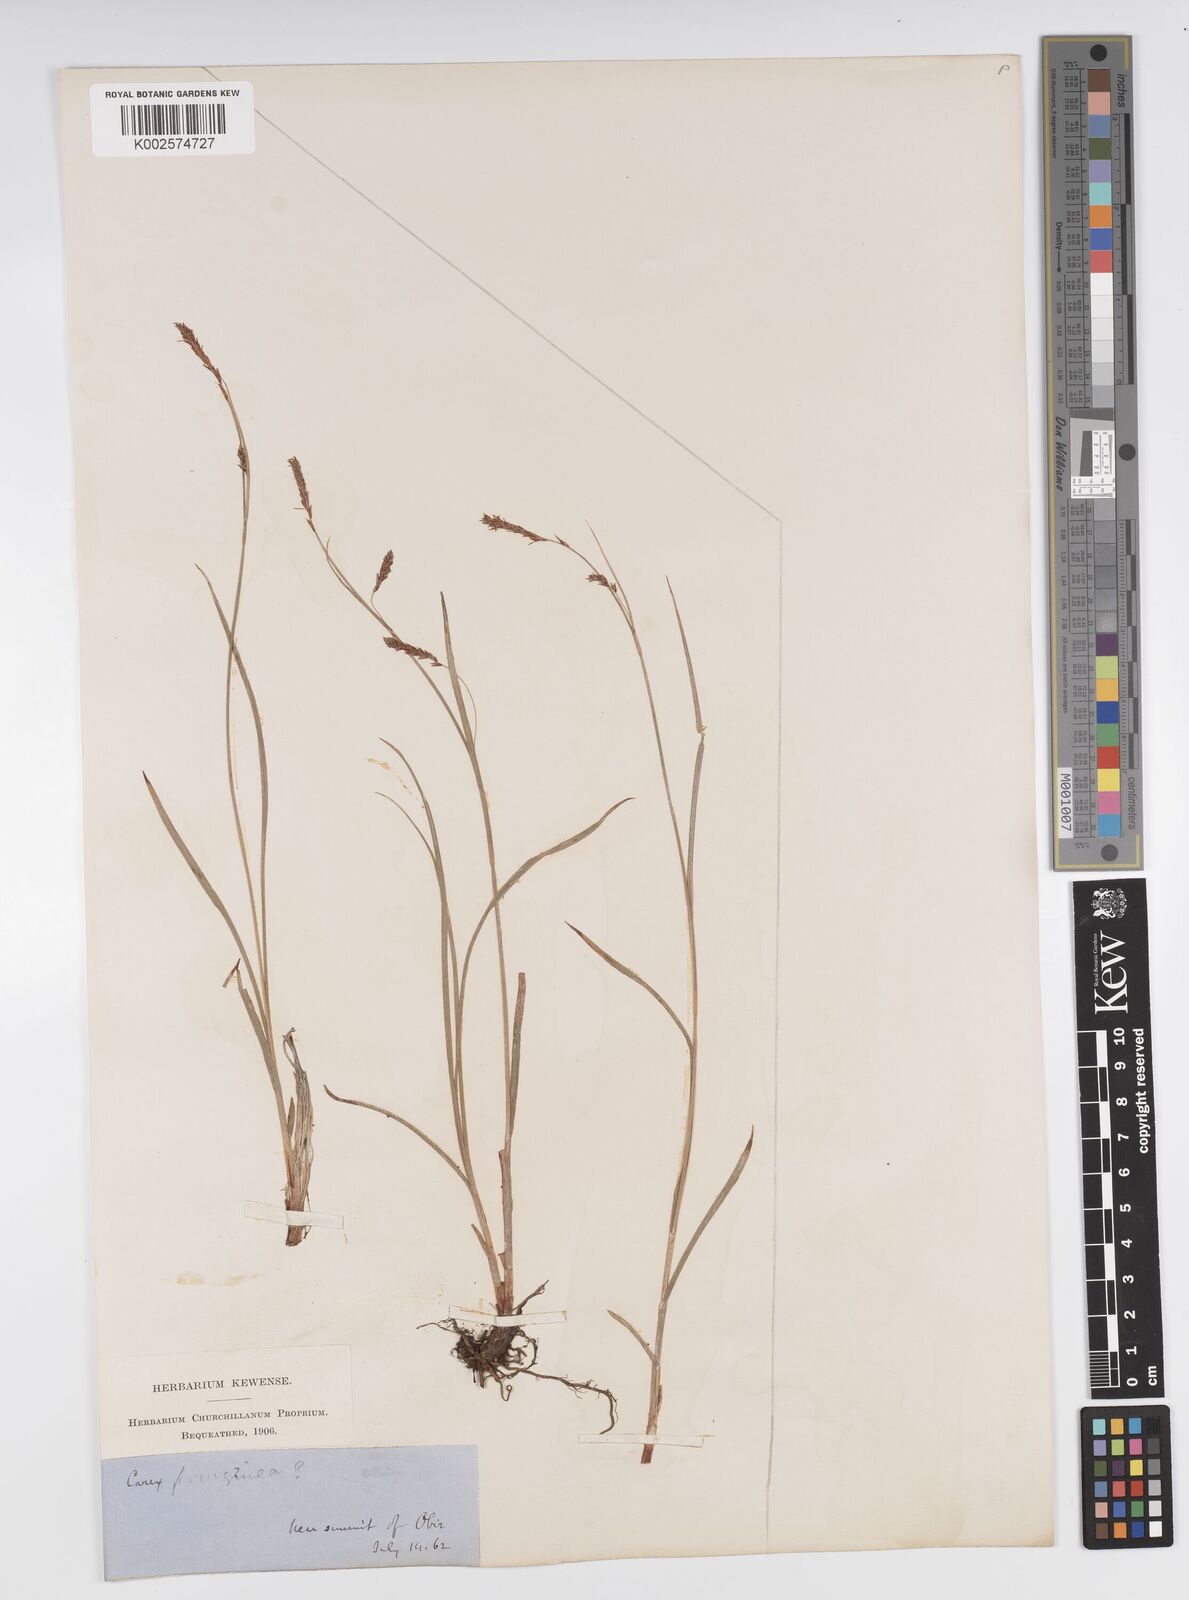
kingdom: Plantae
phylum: Tracheophyta
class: Liliopsida
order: Poales
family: Cyperaceae
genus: Carex
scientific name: Carex ferruginea
